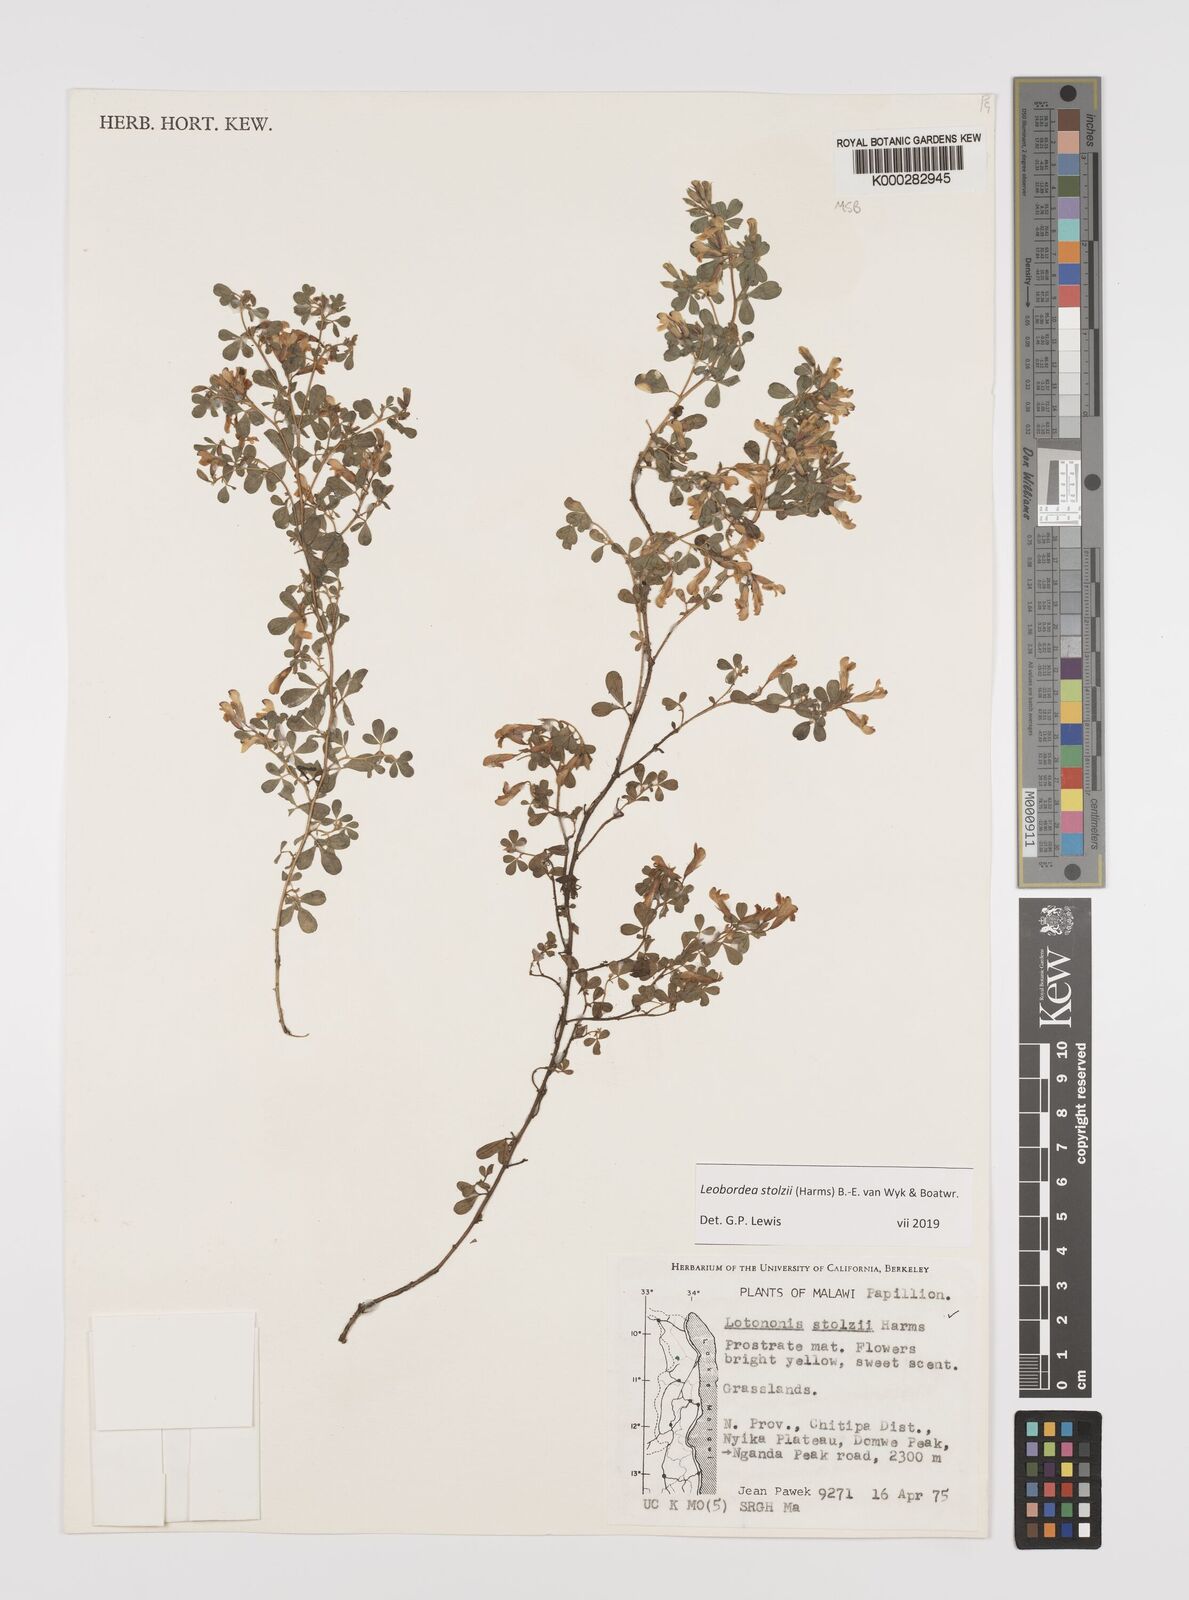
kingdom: Plantae
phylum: Tracheophyta
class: Magnoliopsida
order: Fabales
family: Fabaceae
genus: Leobordea
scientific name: Leobordea stolzii
